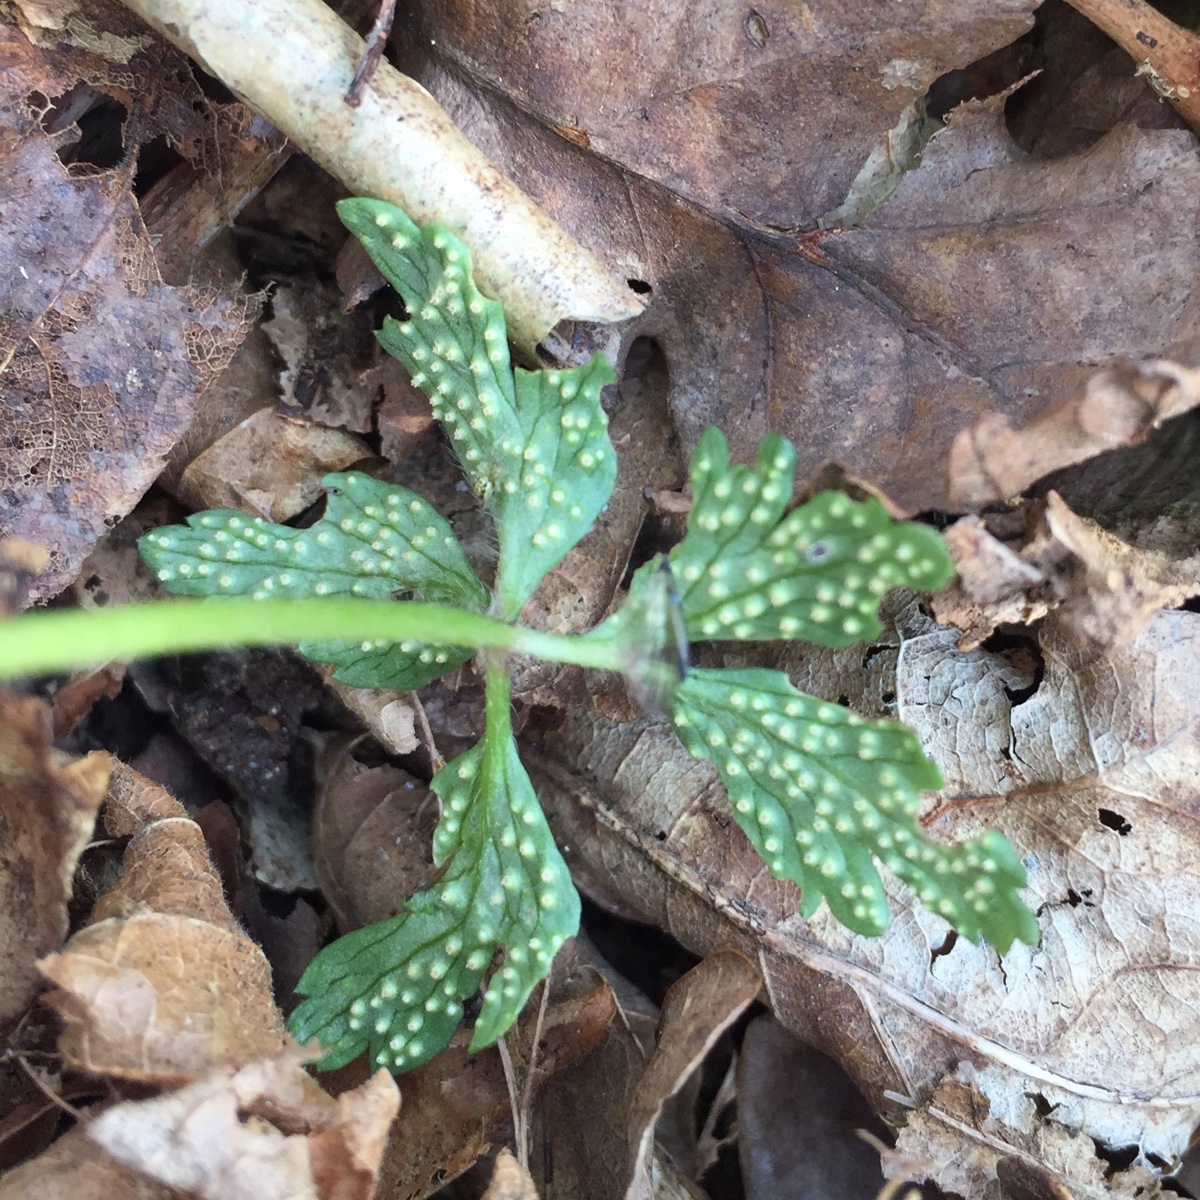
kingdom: Fungi
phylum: Basidiomycota
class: Pucciniomycetes
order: Pucciniales
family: Ochropsoraceae
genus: Ochropsora
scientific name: Ochropsora ariae
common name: anemone-okkerpletrust
